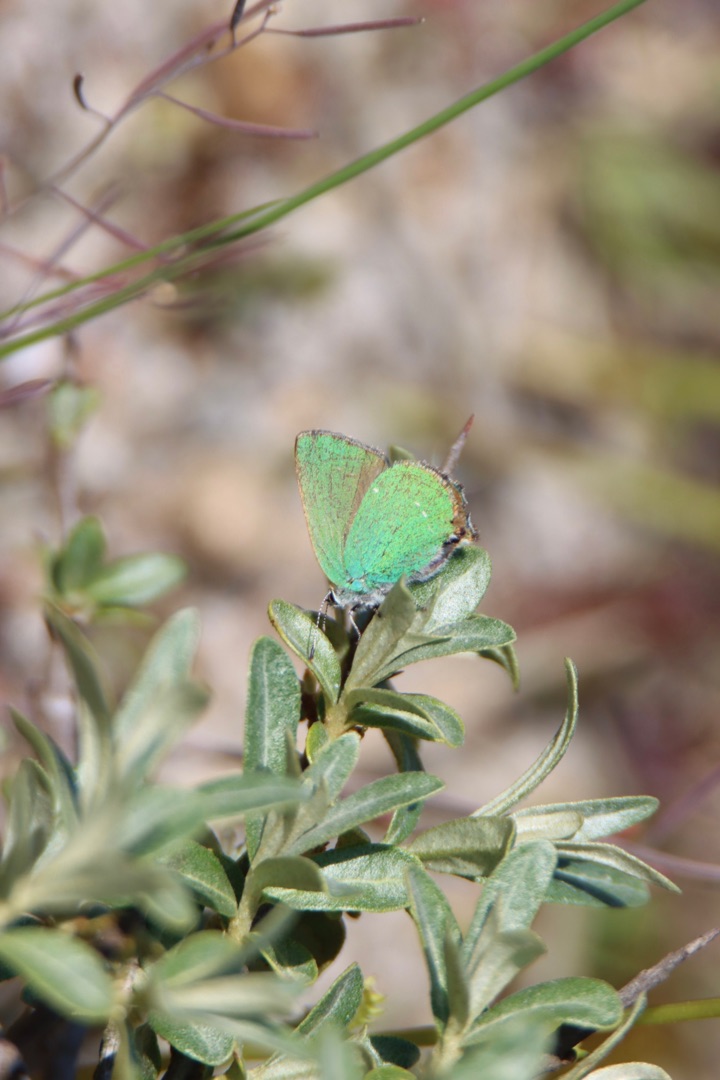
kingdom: Animalia
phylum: Arthropoda
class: Insecta
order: Lepidoptera
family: Lycaenidae
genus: Callophrys
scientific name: Callophrys rubi
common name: Grøn busksommerfugl
